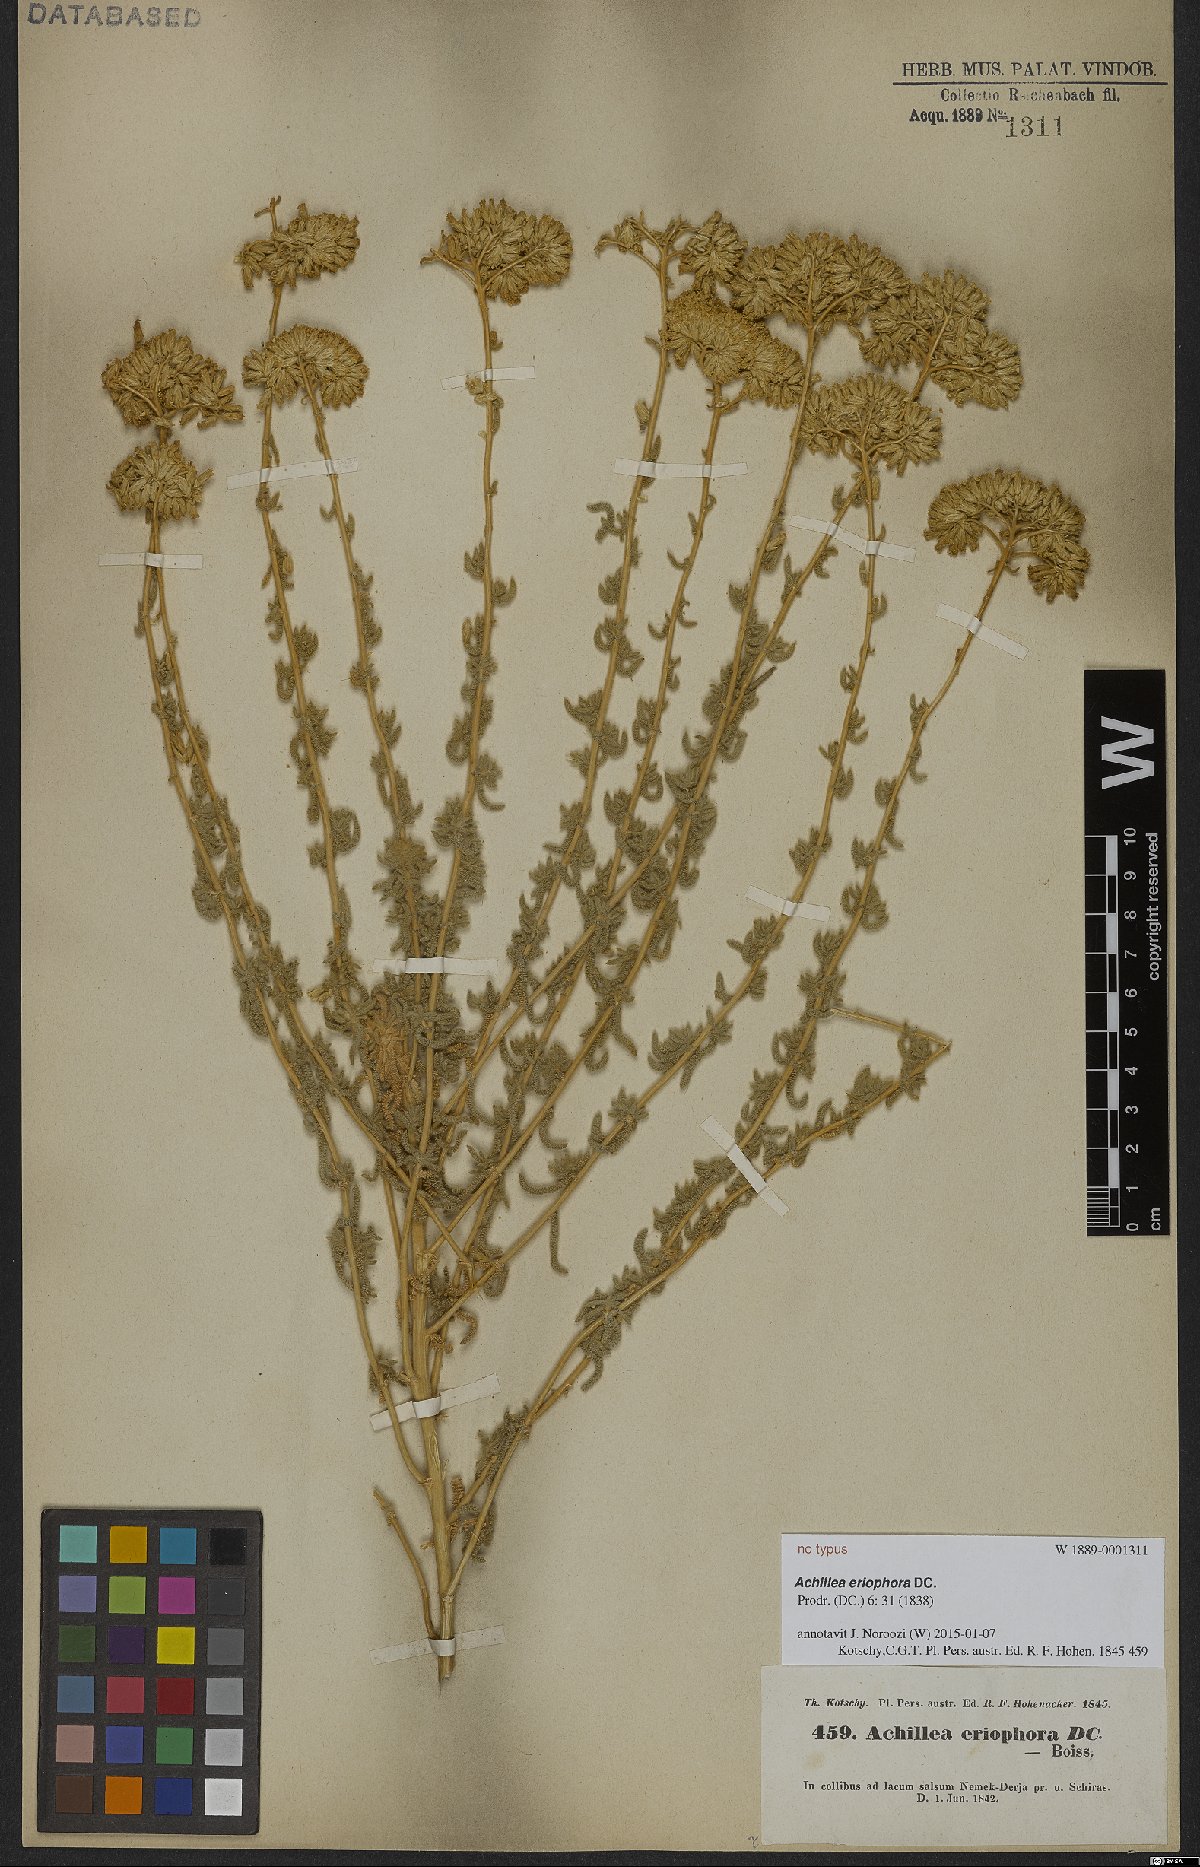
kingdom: Plantae
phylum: Tracheophyta
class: Magnoliopsida
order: Asterales
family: Asteraceae
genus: Achillea
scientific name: Achillea eriophora
